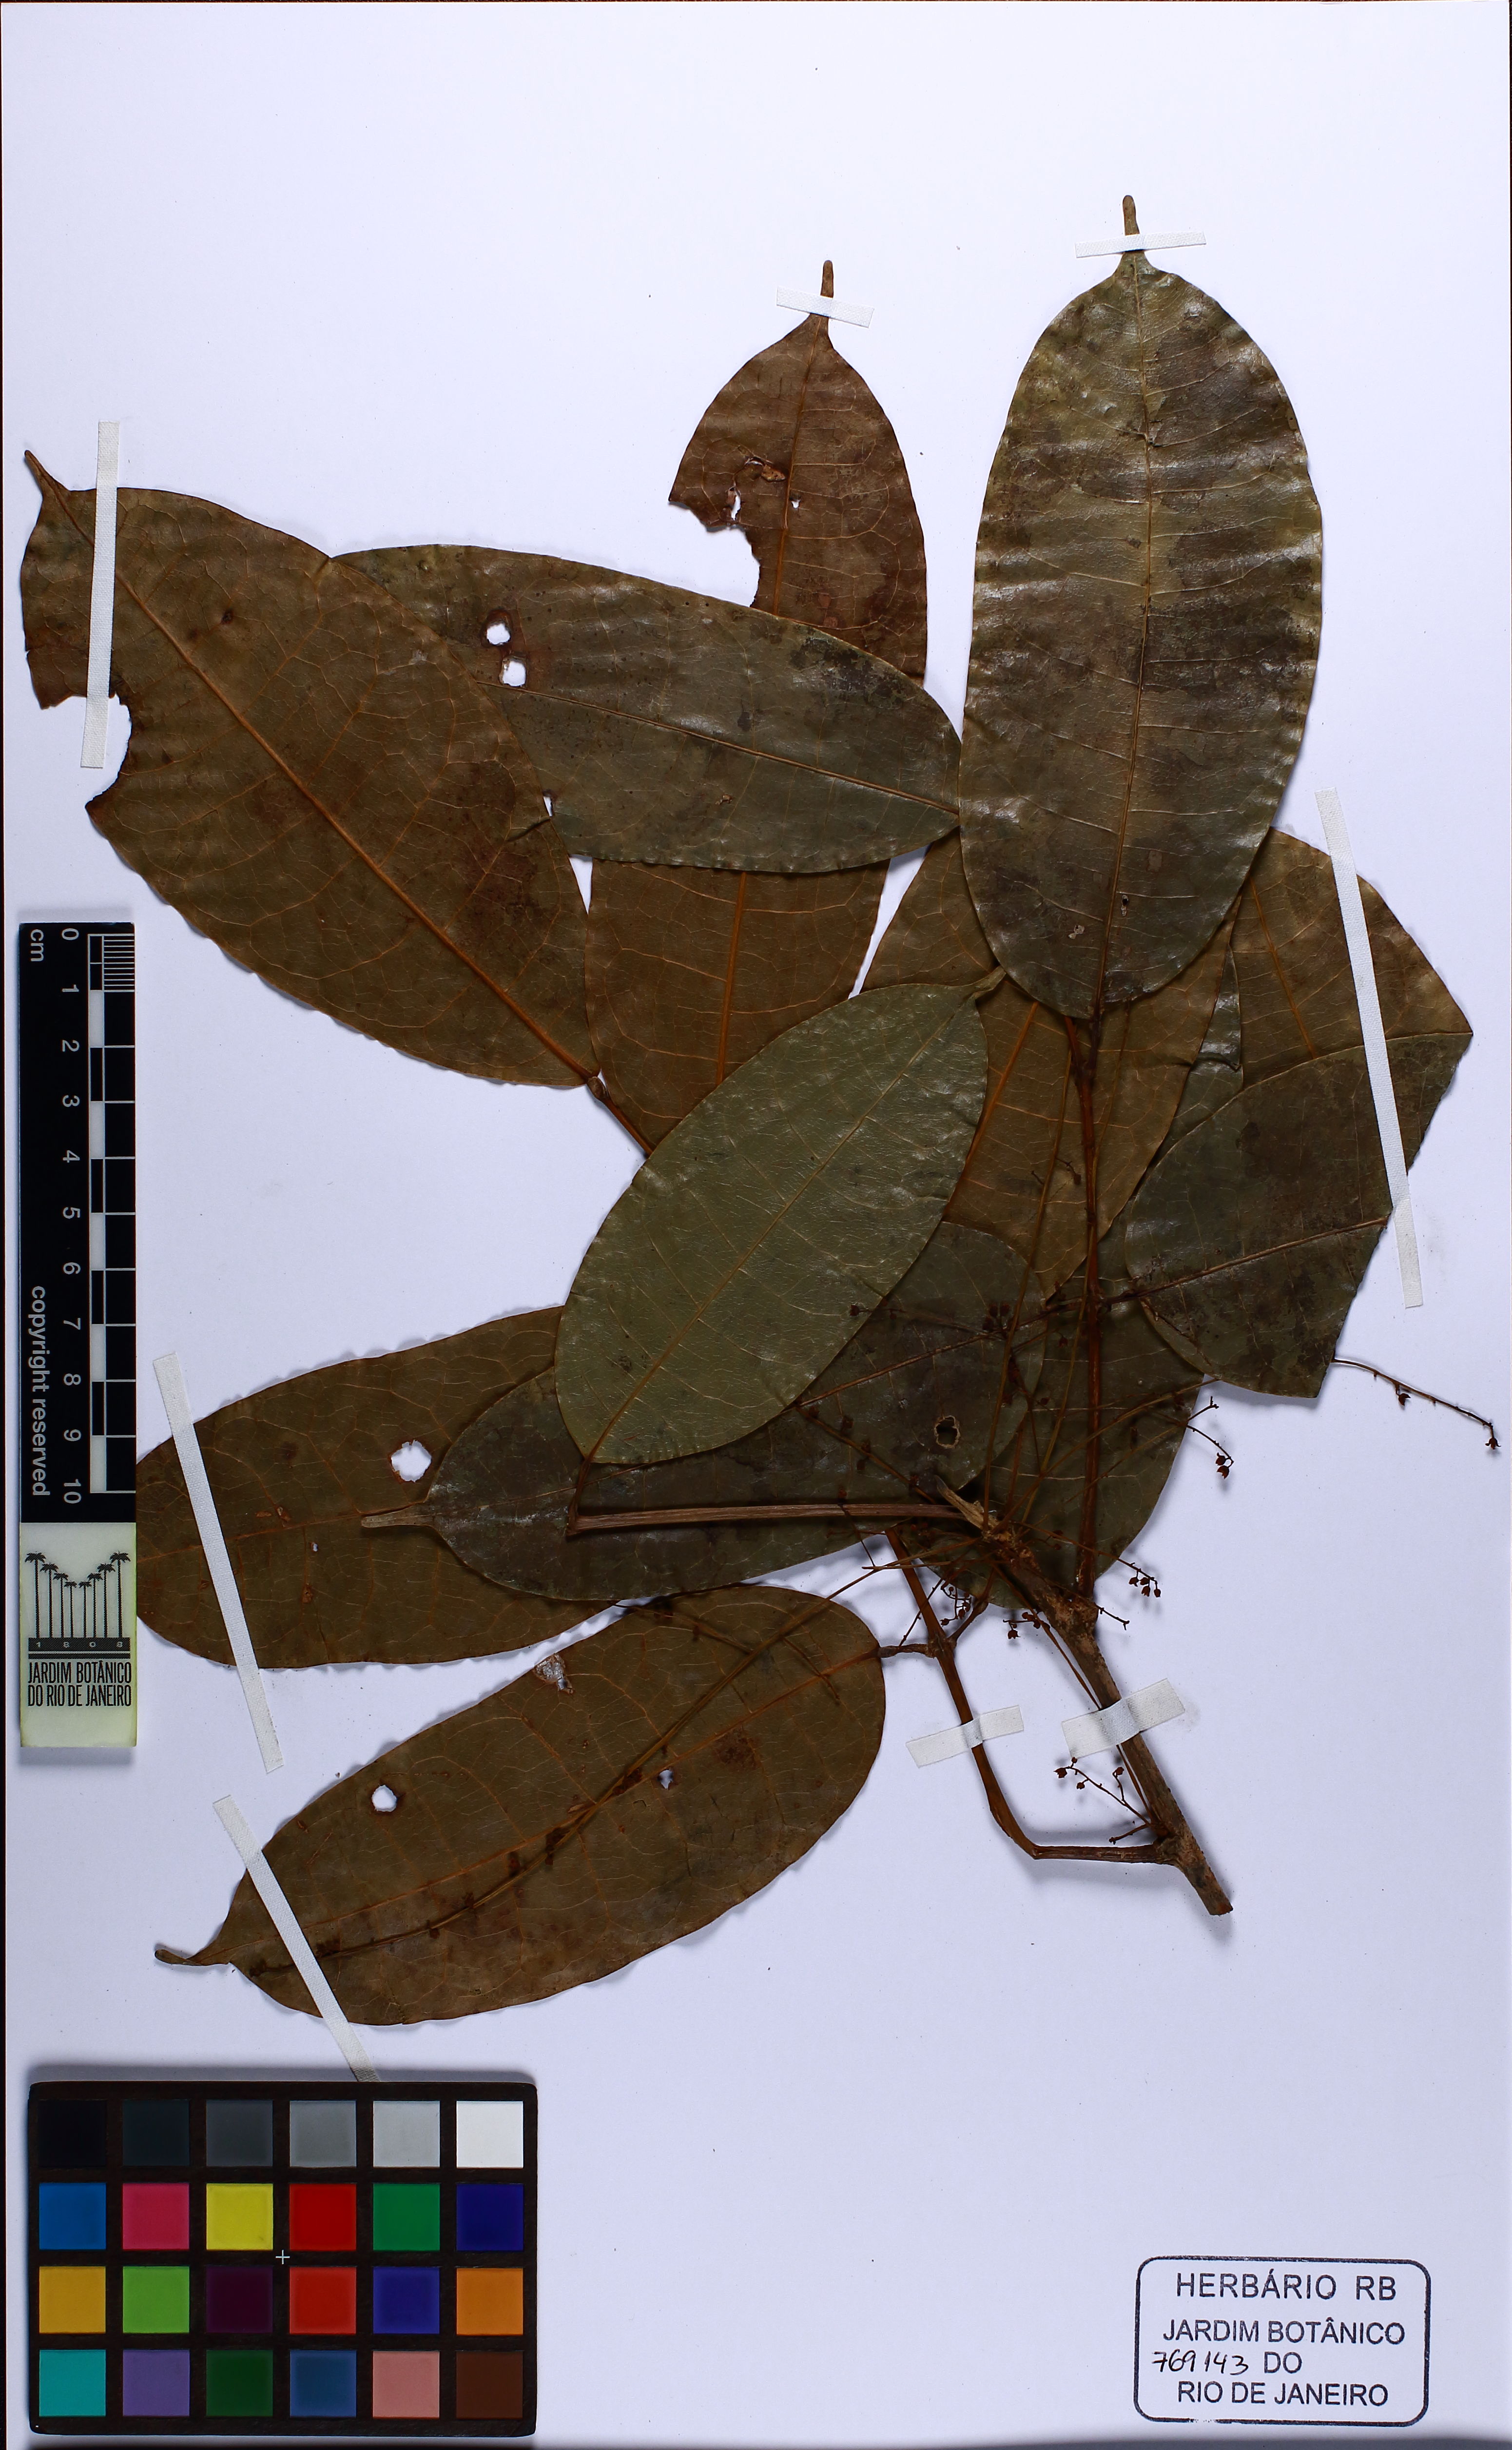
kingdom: Plantae
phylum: Tracheophyta
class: Magnoliopsida
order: Sapindales
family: Burseraceae
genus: Protium
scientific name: Protium strumosum
